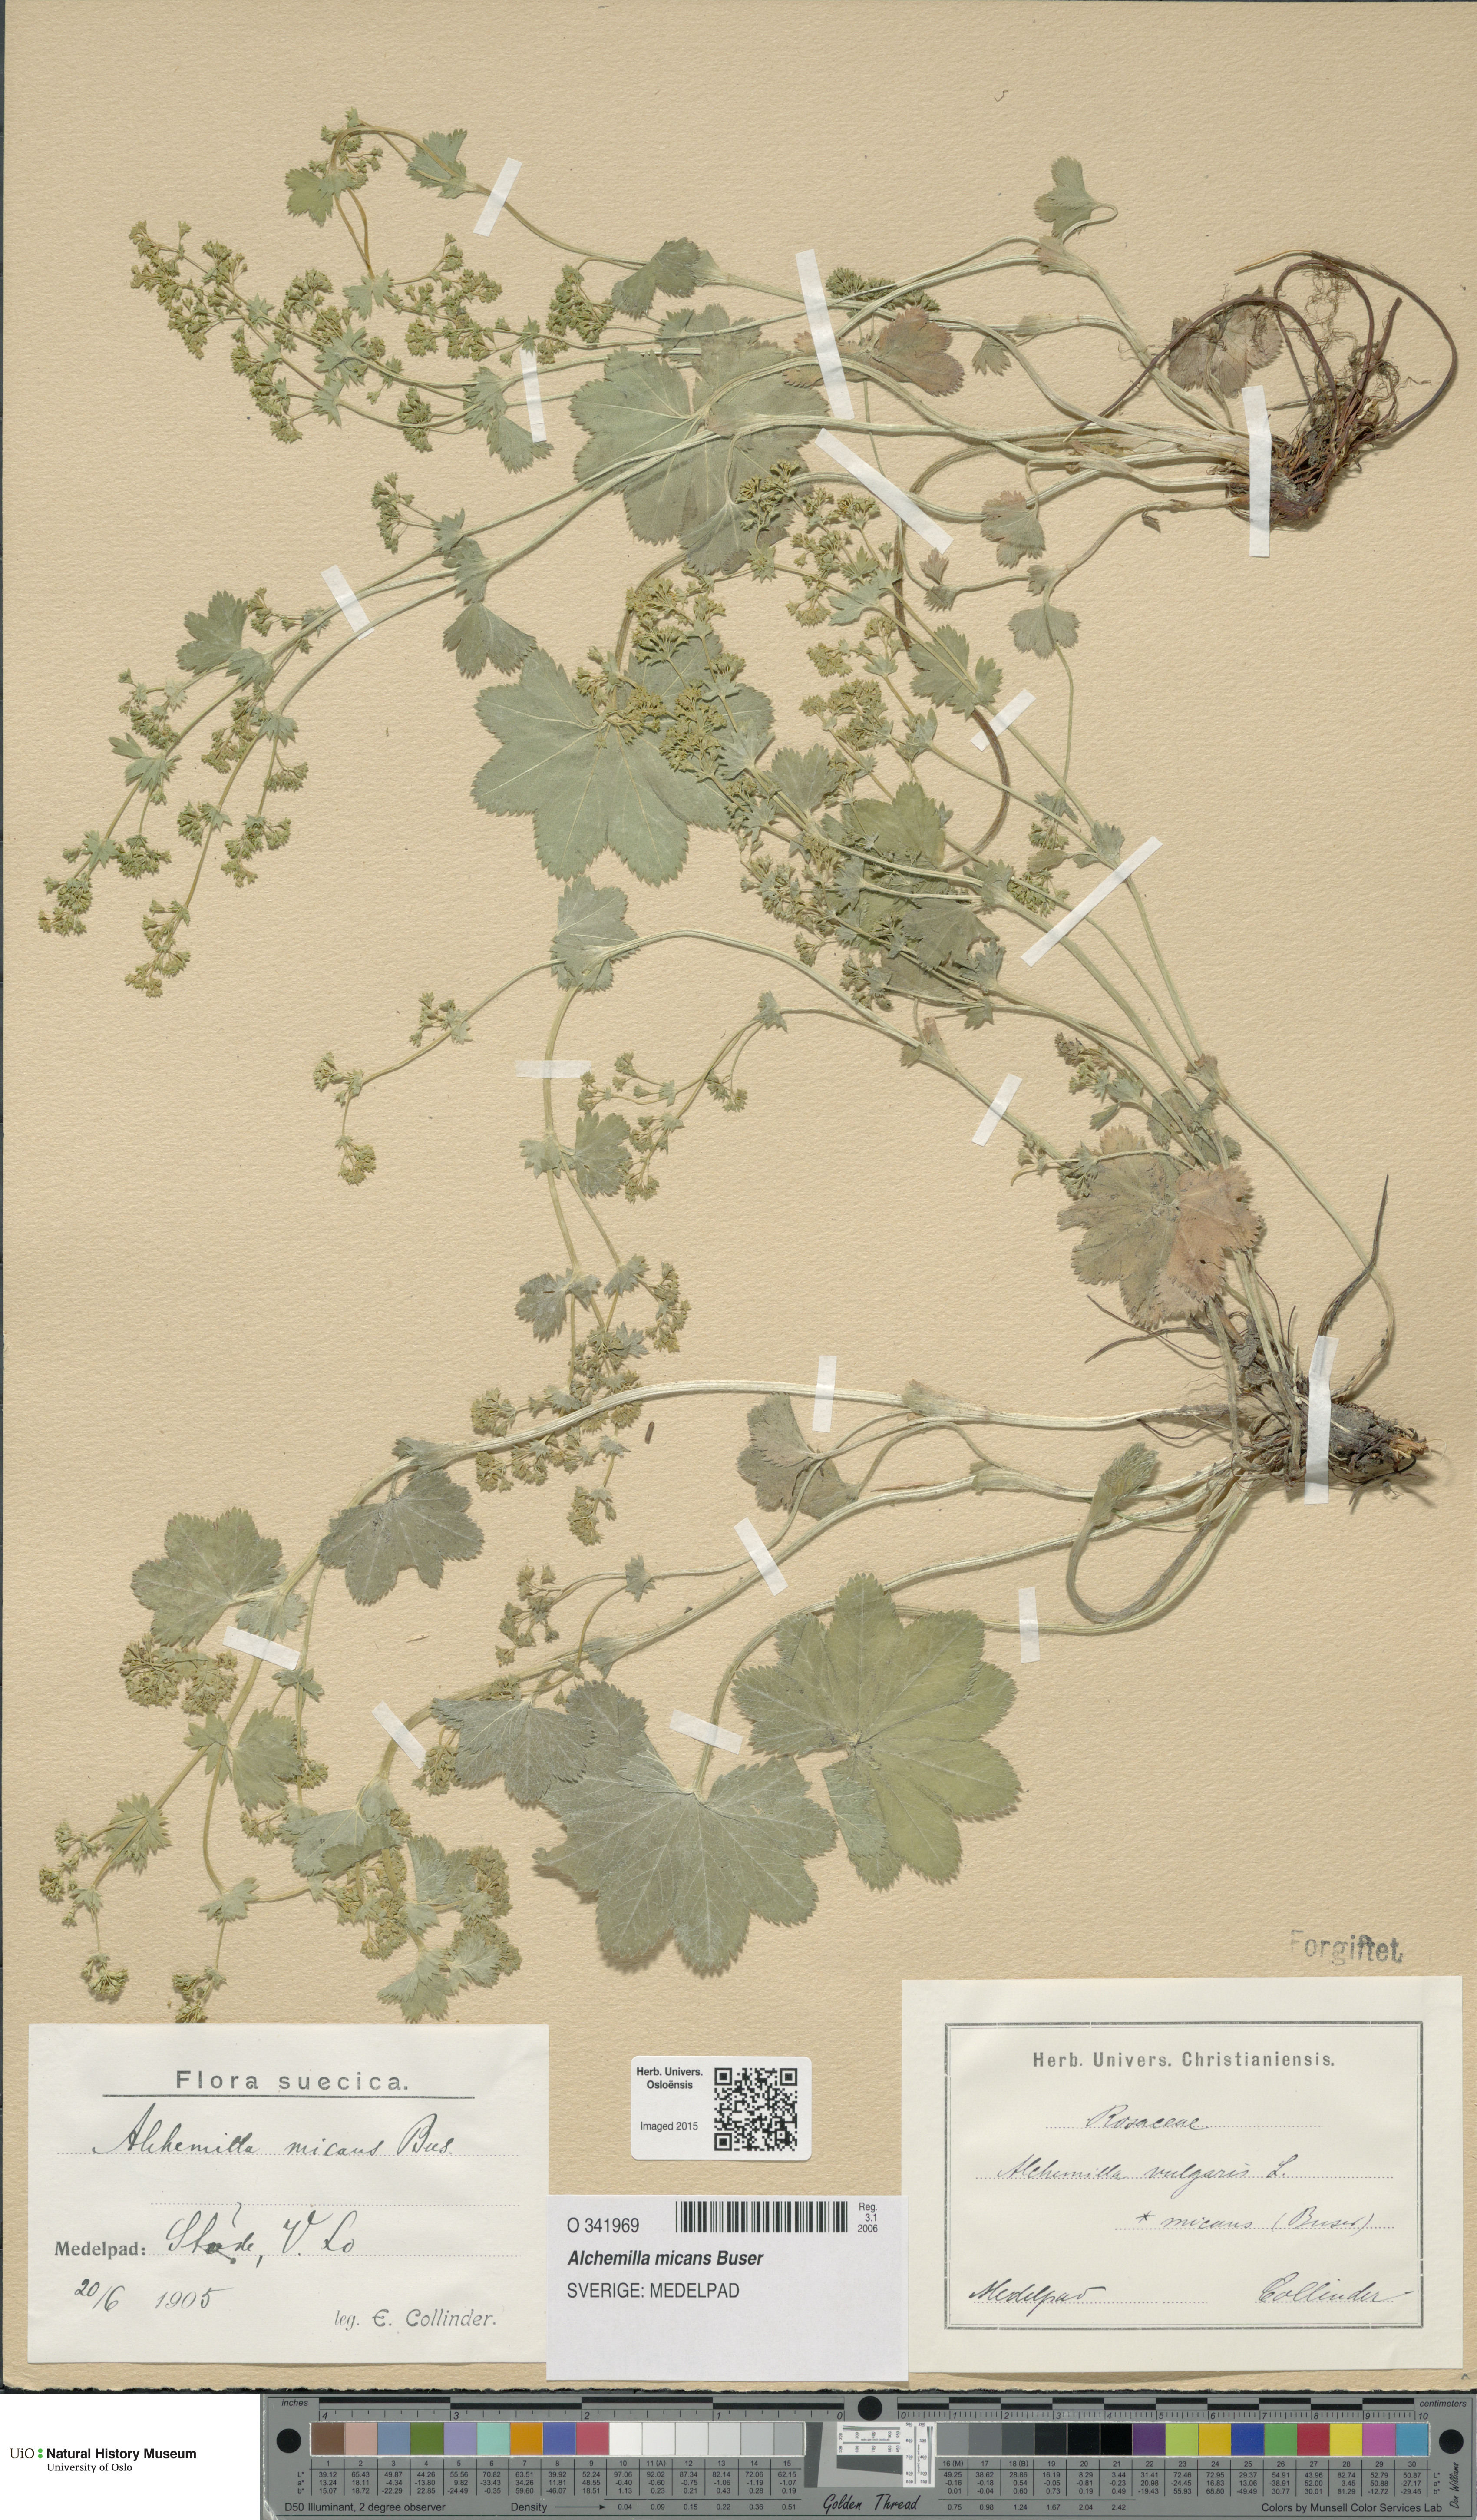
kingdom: Plantae
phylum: Tracheophyta
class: Magnoliopsida
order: Rosales
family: Rosaceae
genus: Alchemilla
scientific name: Alchemilla micans
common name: Gleaming lady's mantle
